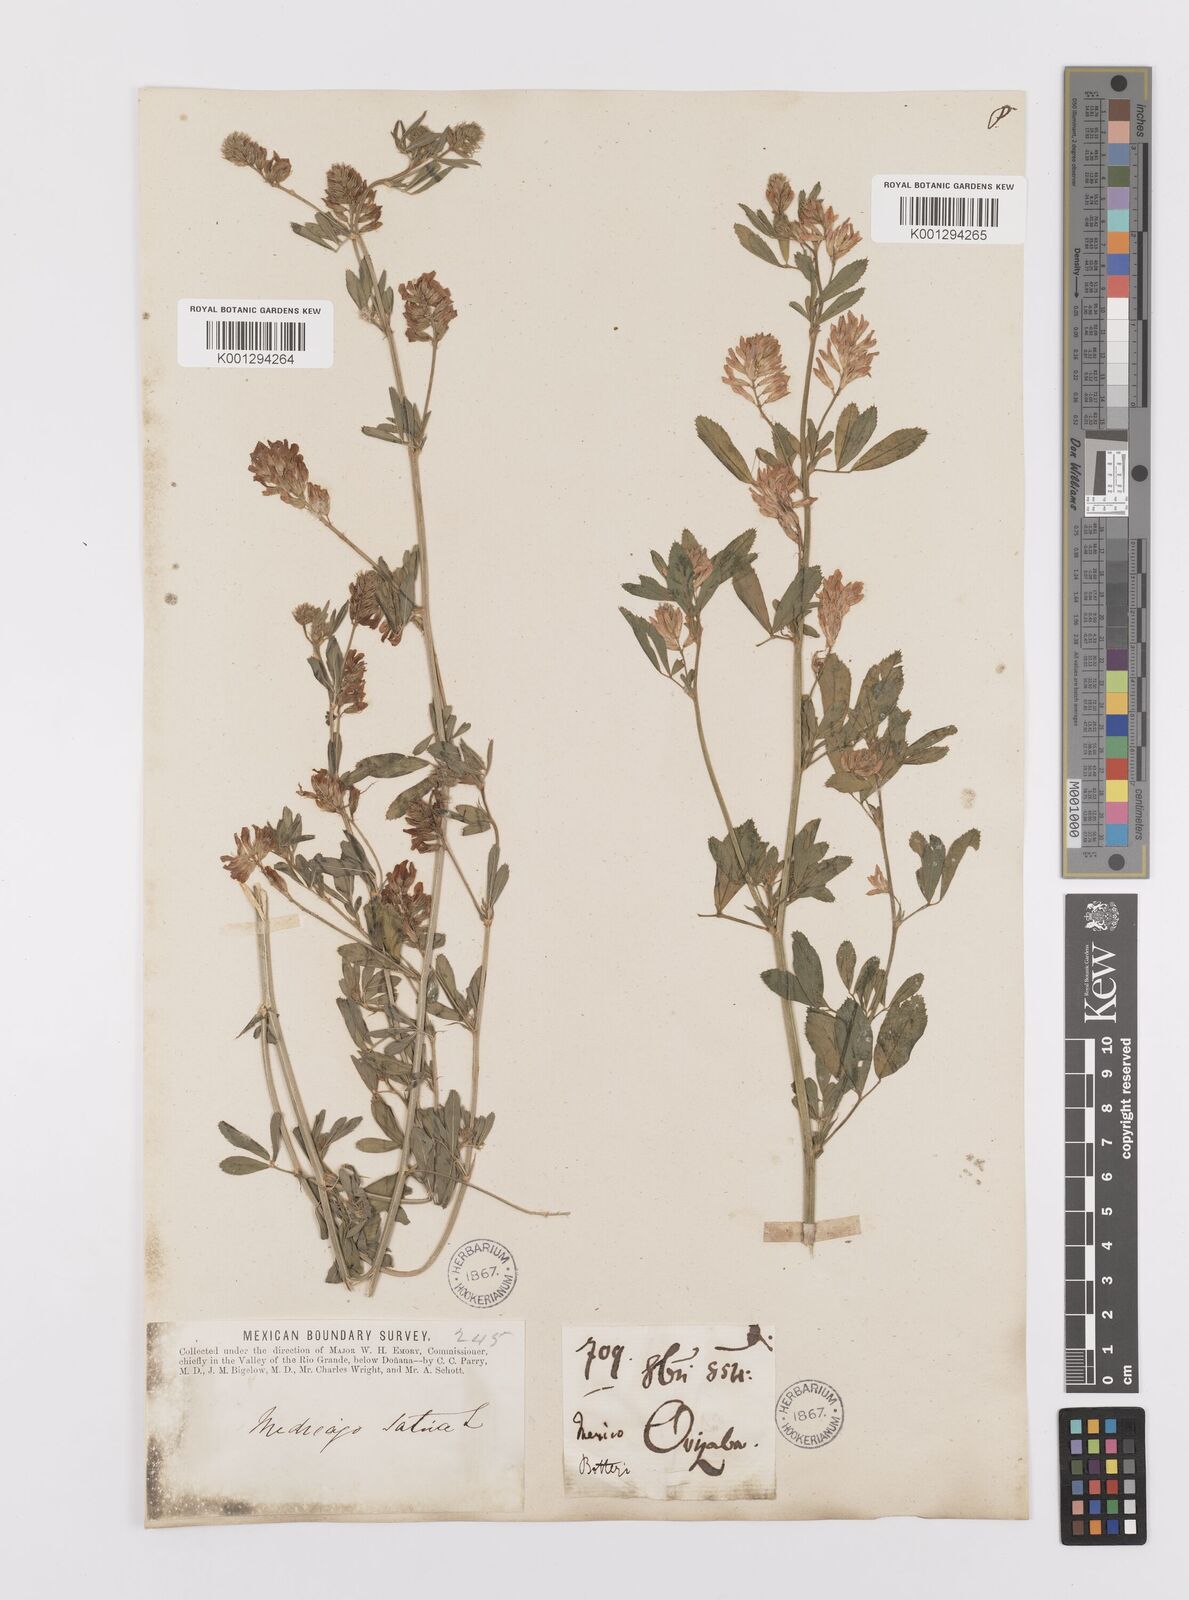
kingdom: Plantae
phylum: Tracheophyta
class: Magnoliopsida
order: Fabales
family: Fabaceae
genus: Medicago
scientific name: Medicago sativa
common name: Alfalfa
